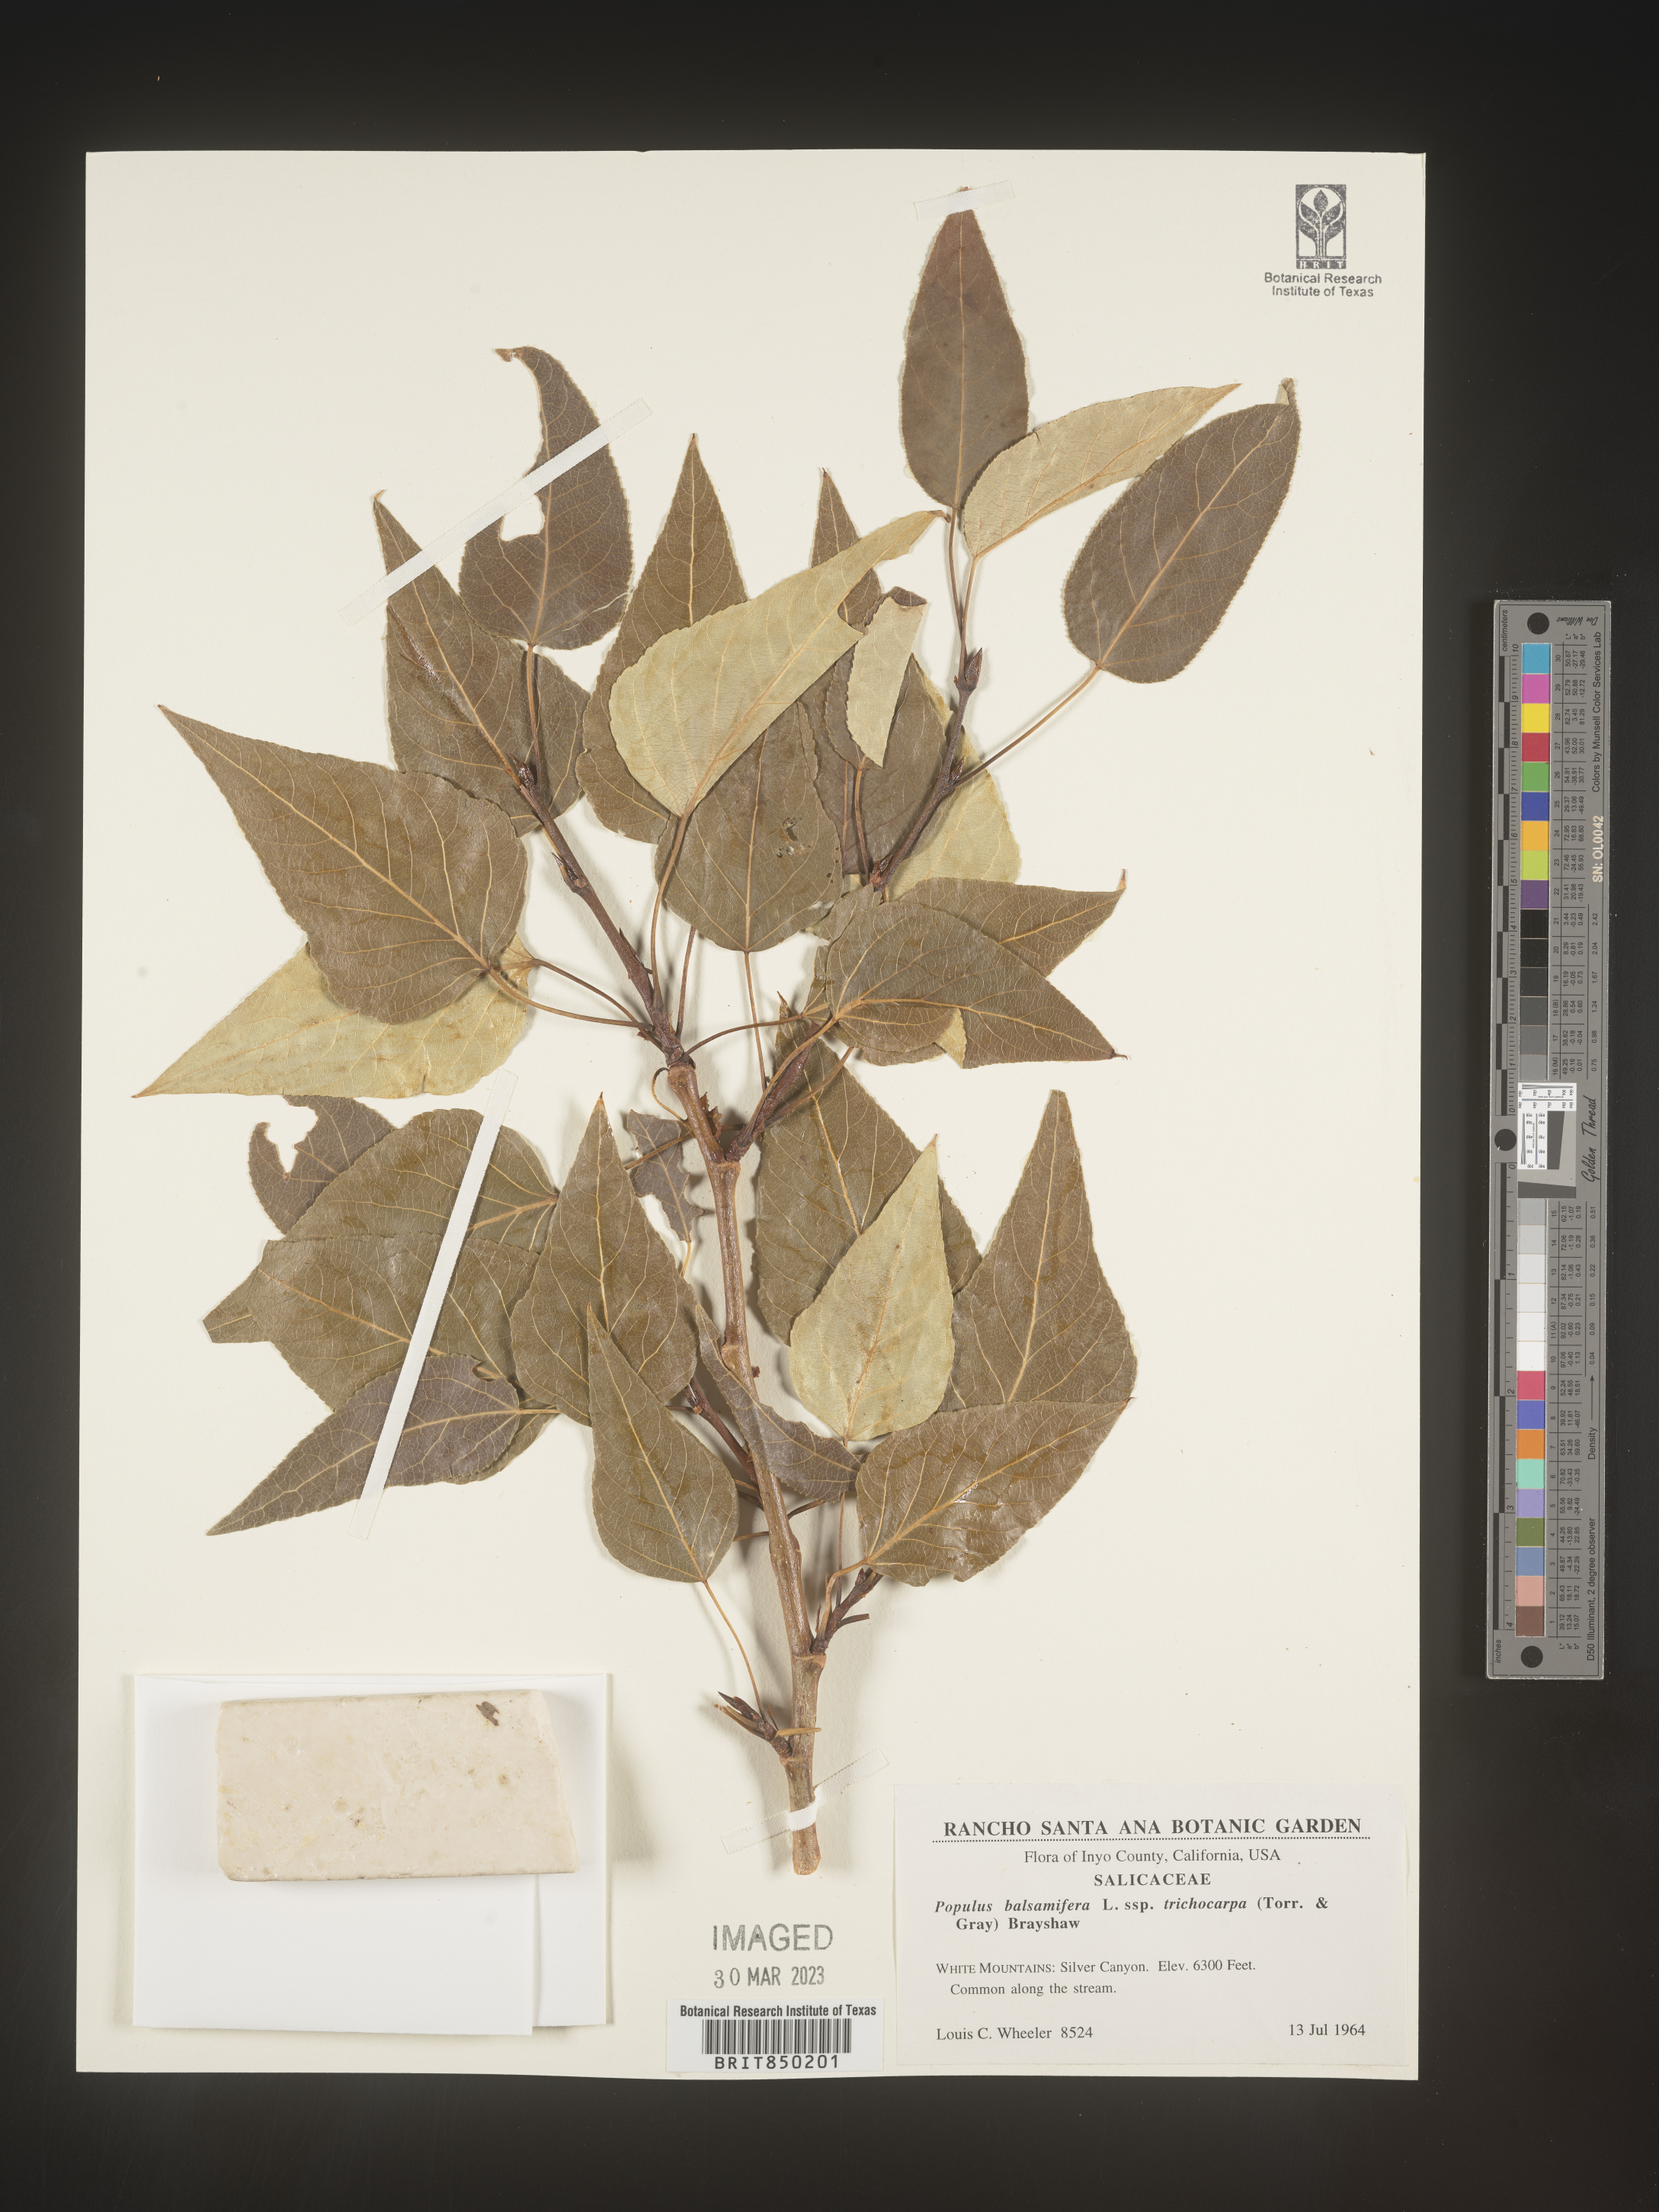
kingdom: Plantae
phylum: Tracheophyta
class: Magnoliopsida
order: Malpighiales
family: Salicaceae
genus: Populus
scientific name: Populus balsamifera
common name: Balsam poplar
